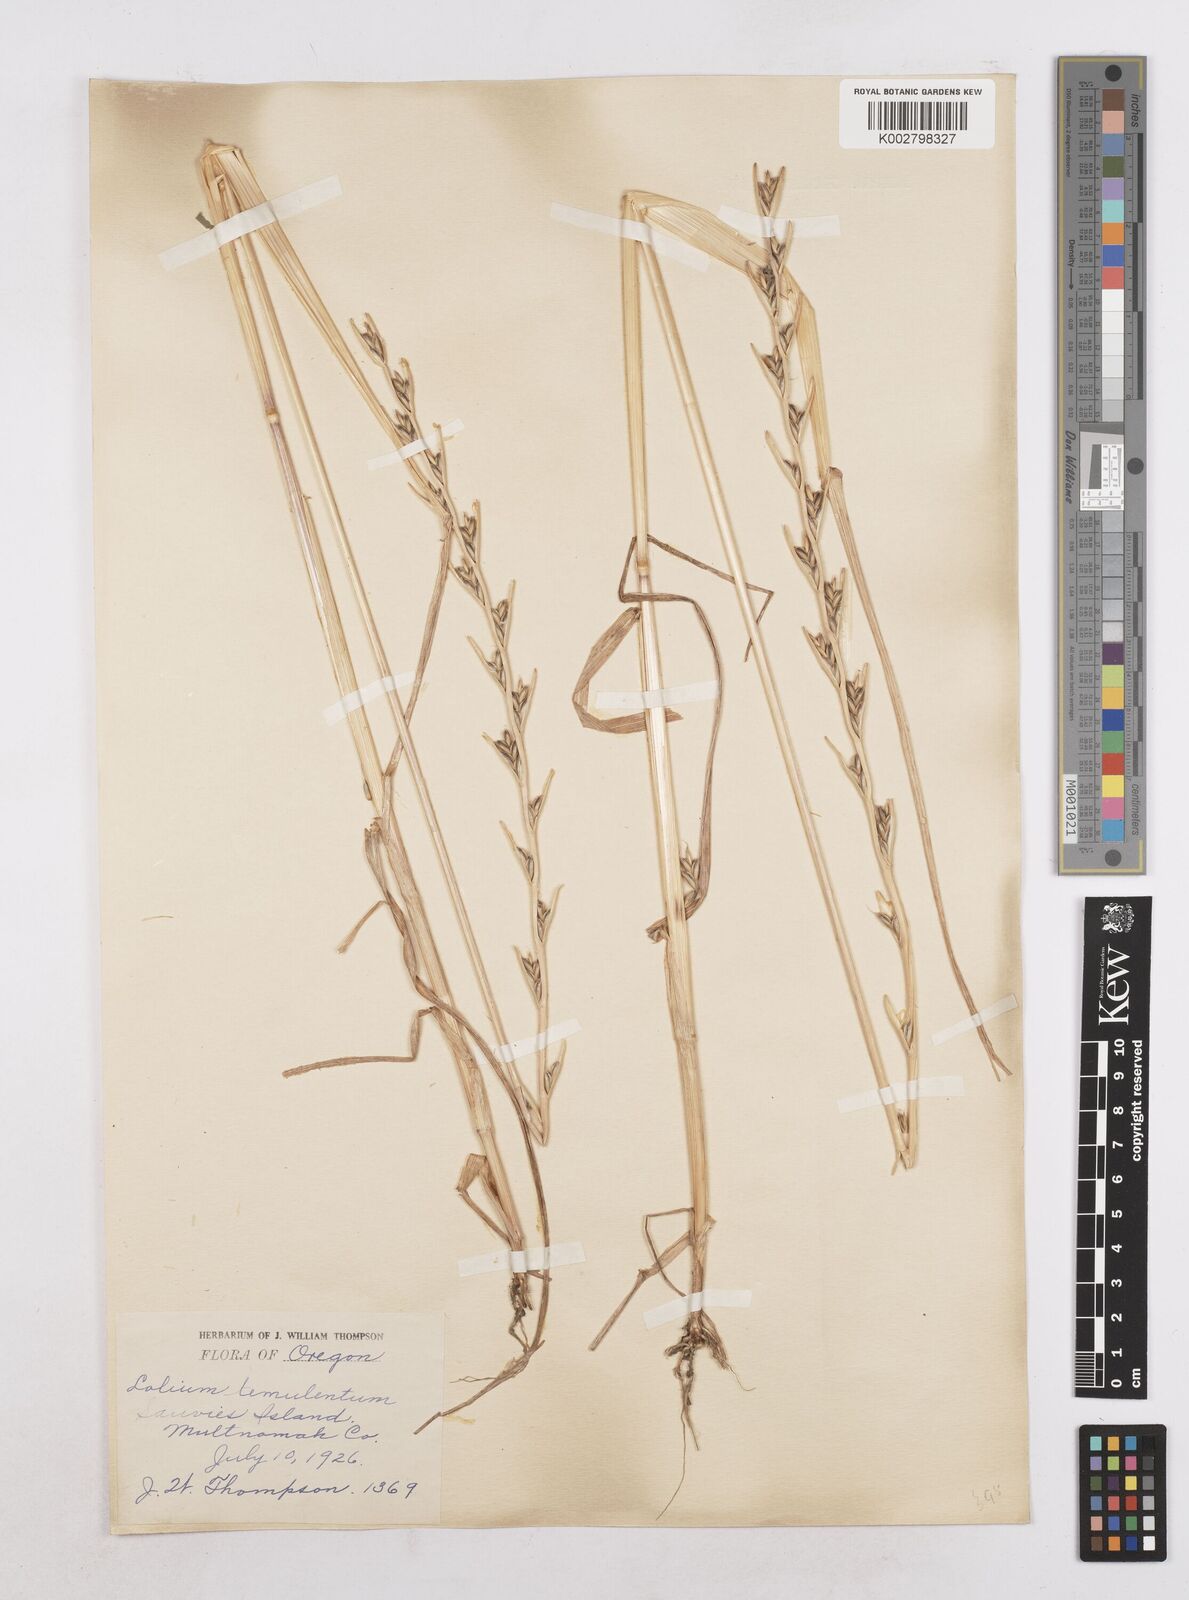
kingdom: Plantae
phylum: Tracheophyta
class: Liliopsida
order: Poales
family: Poaceae
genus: Lolium
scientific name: Lolium temulentum
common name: Darnel
